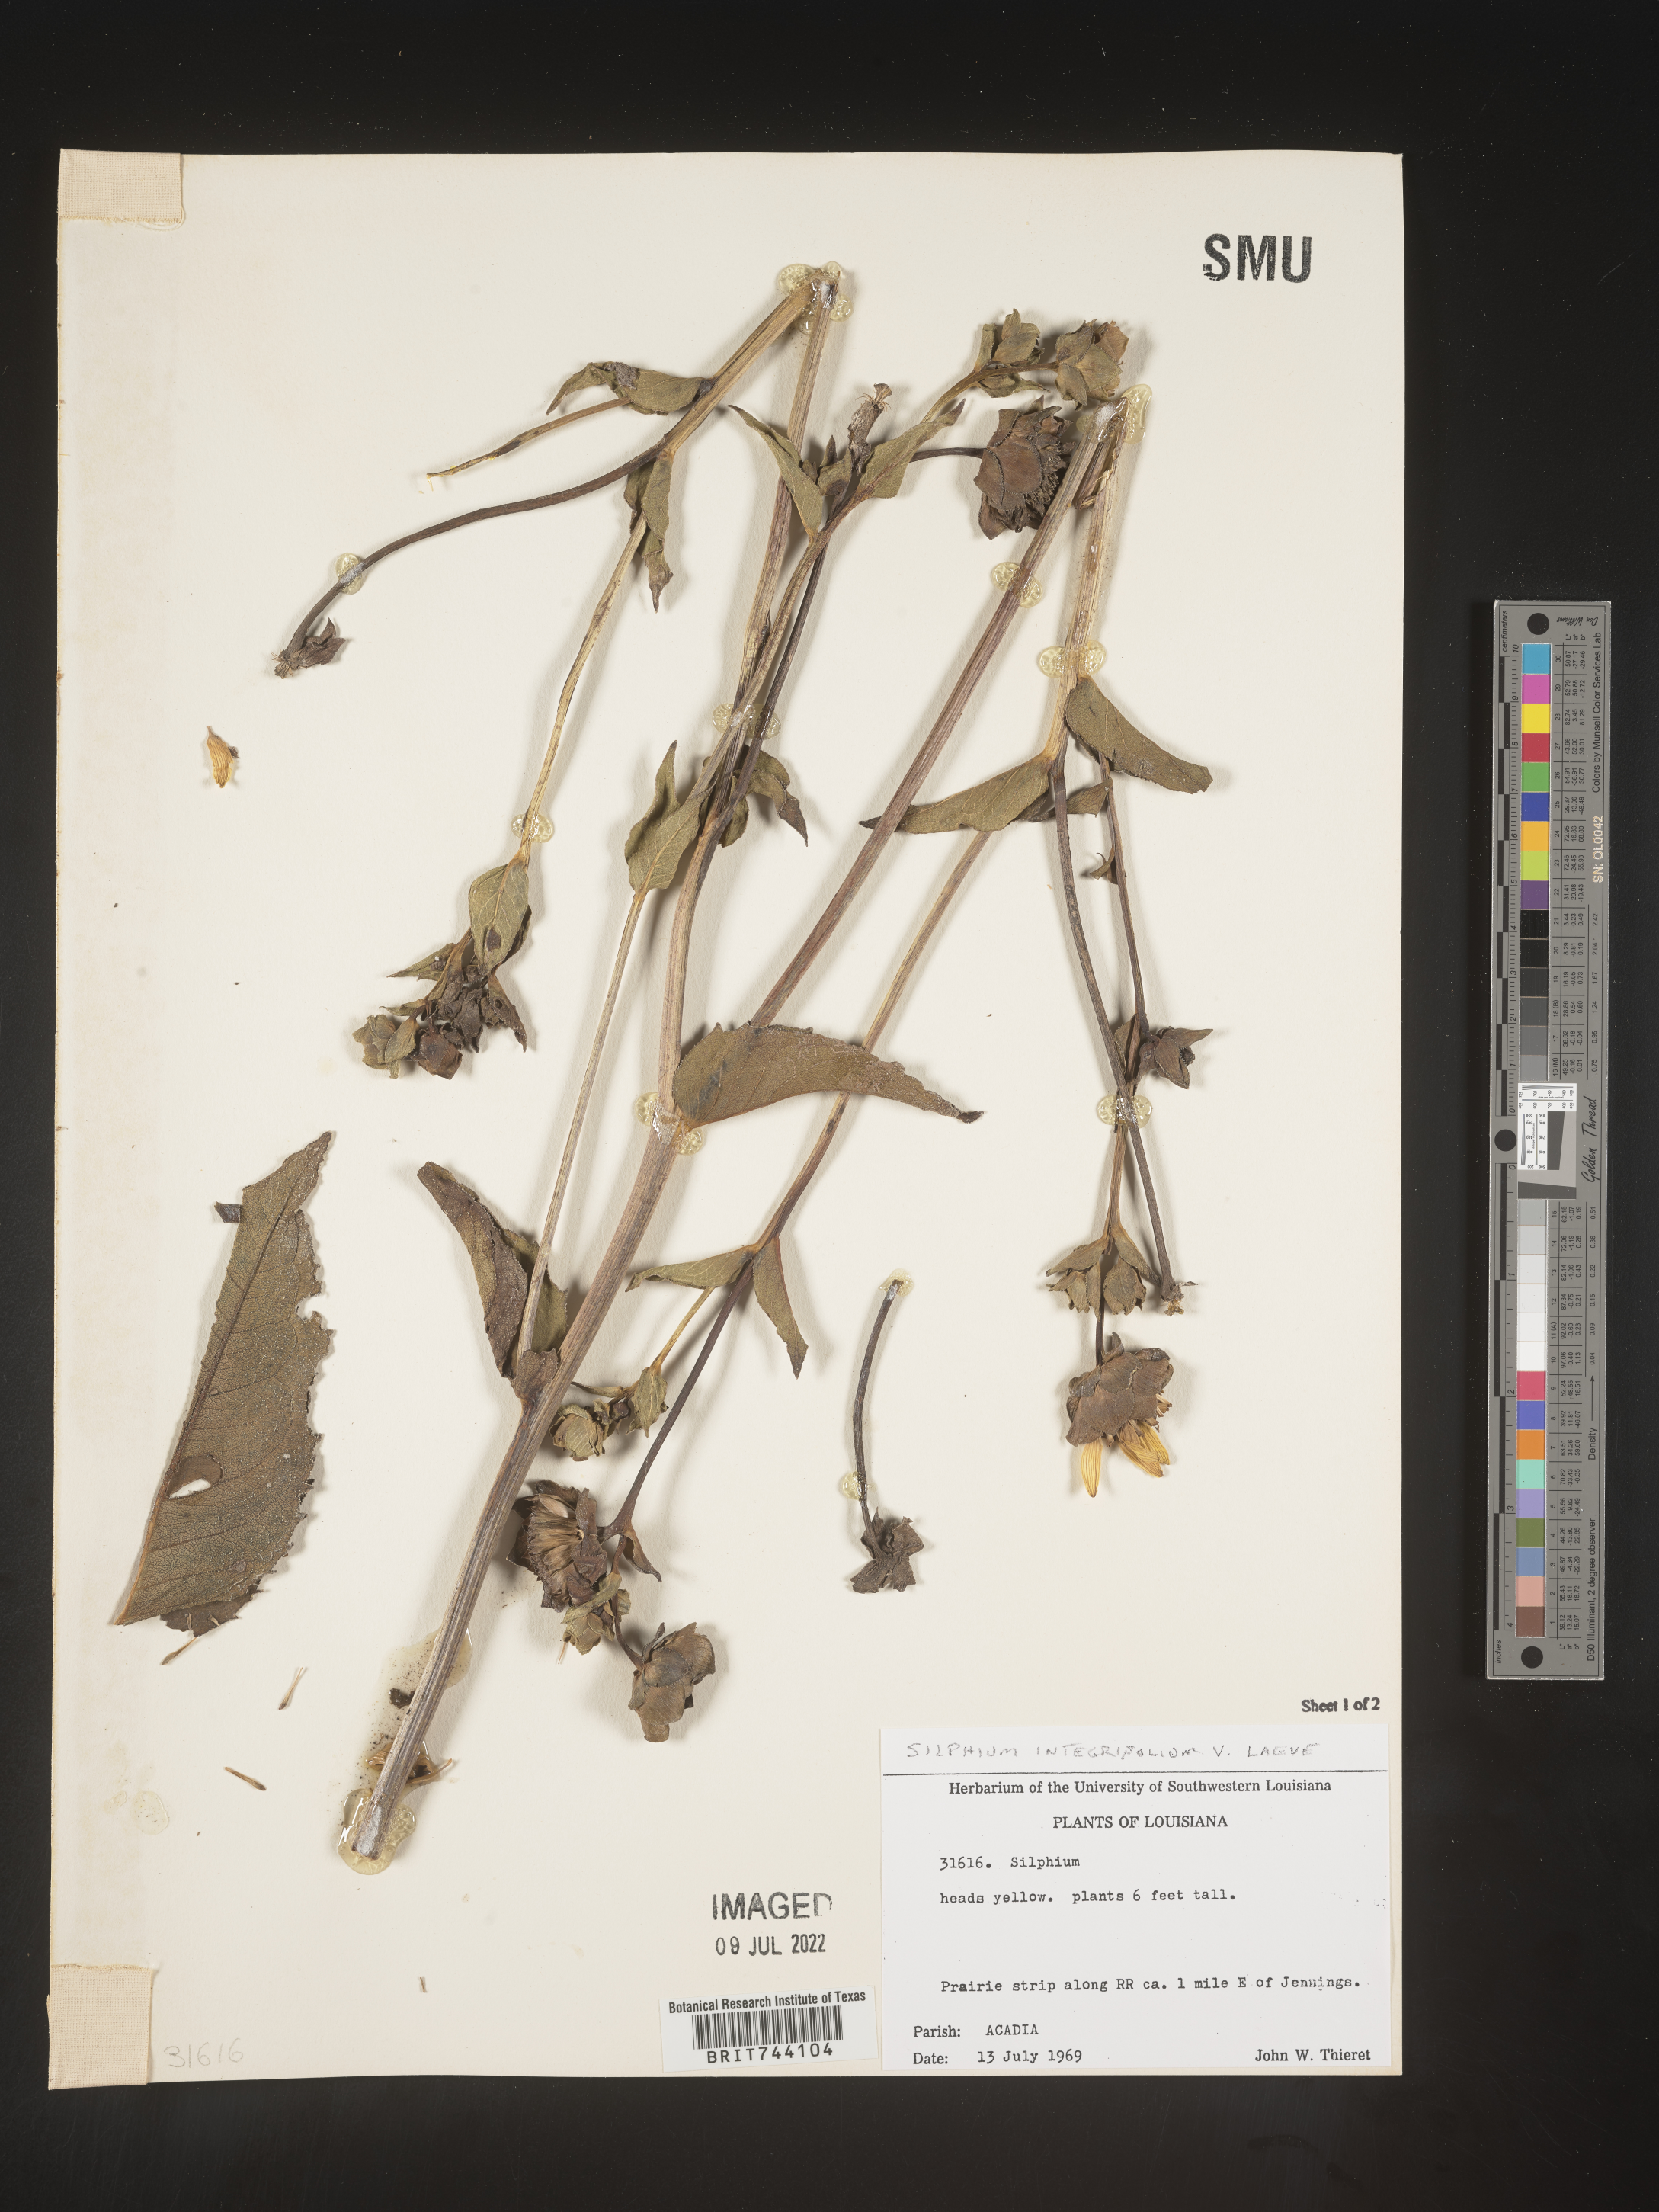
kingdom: Plantae
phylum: Tracheophyta
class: Magnoliopsida
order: Asterales
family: Asteraceae
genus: Silphium
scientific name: Silphium
